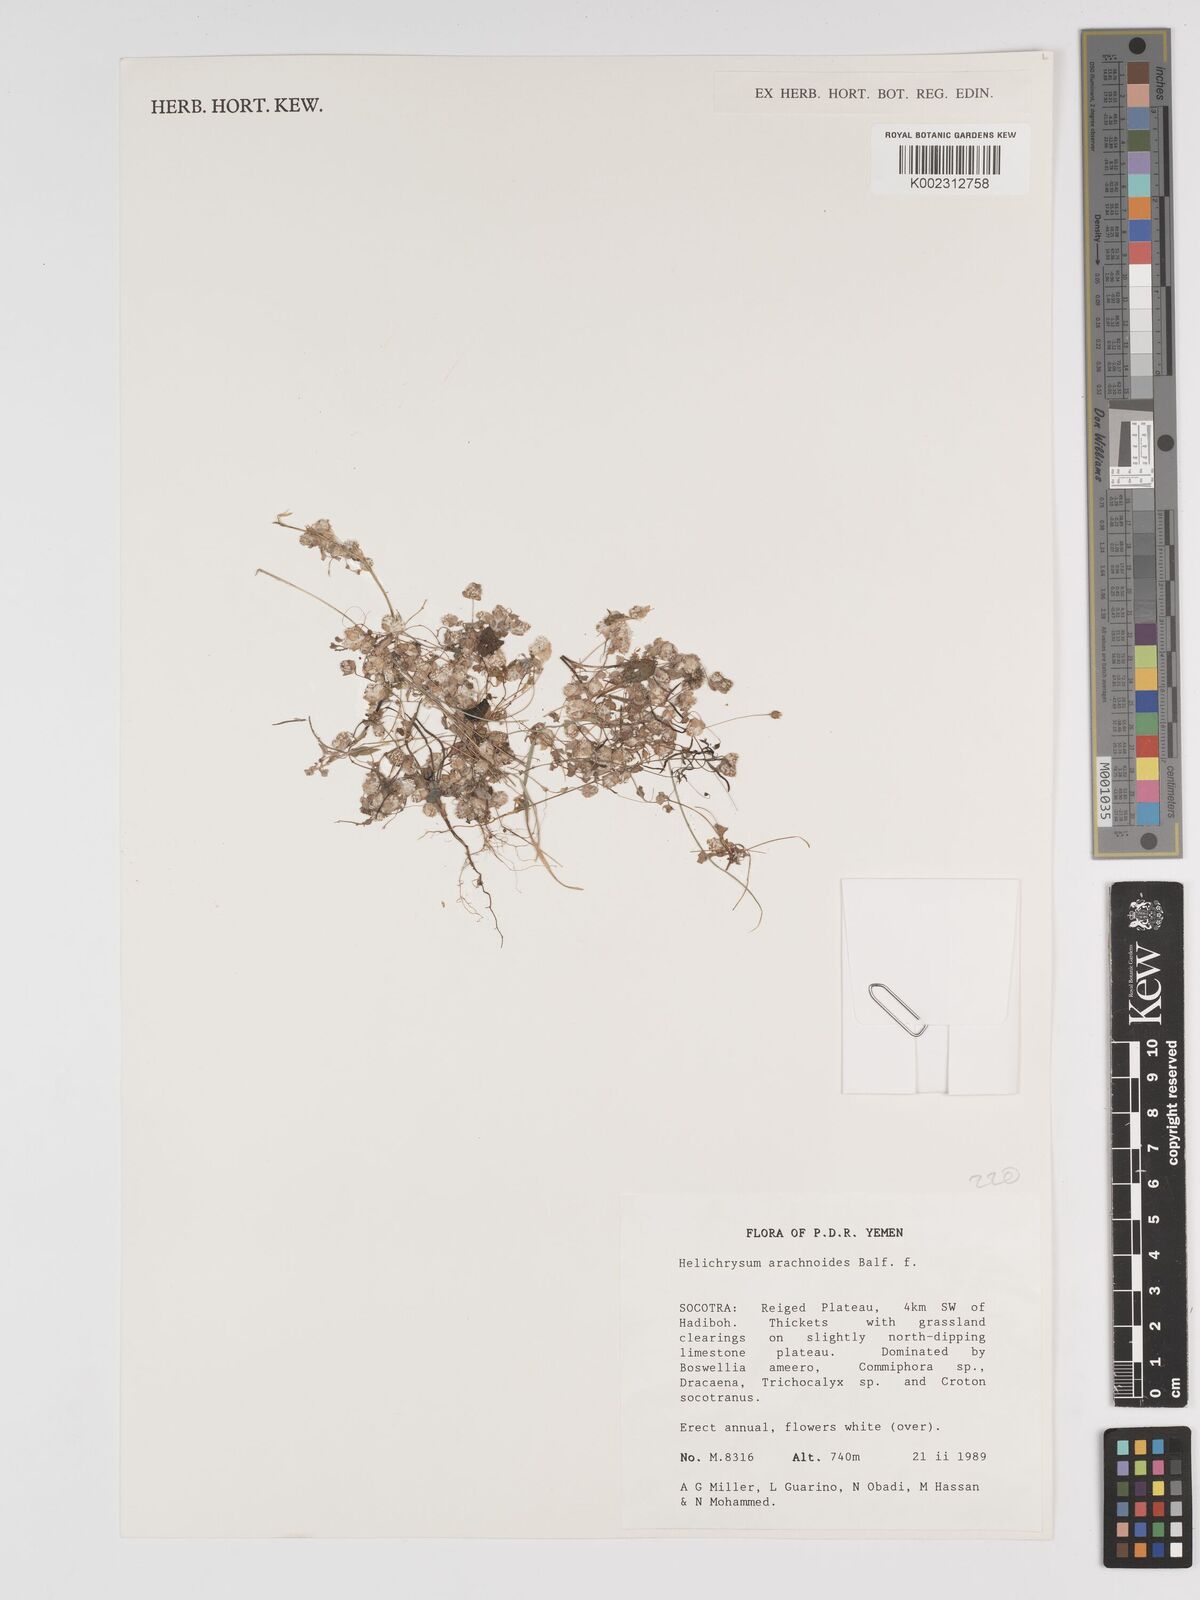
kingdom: Plantae
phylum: Tracheophyta
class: Magnoliopsida
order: Asterales
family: Asteraceae
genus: Libinhania
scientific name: Libinhania arachnoides
